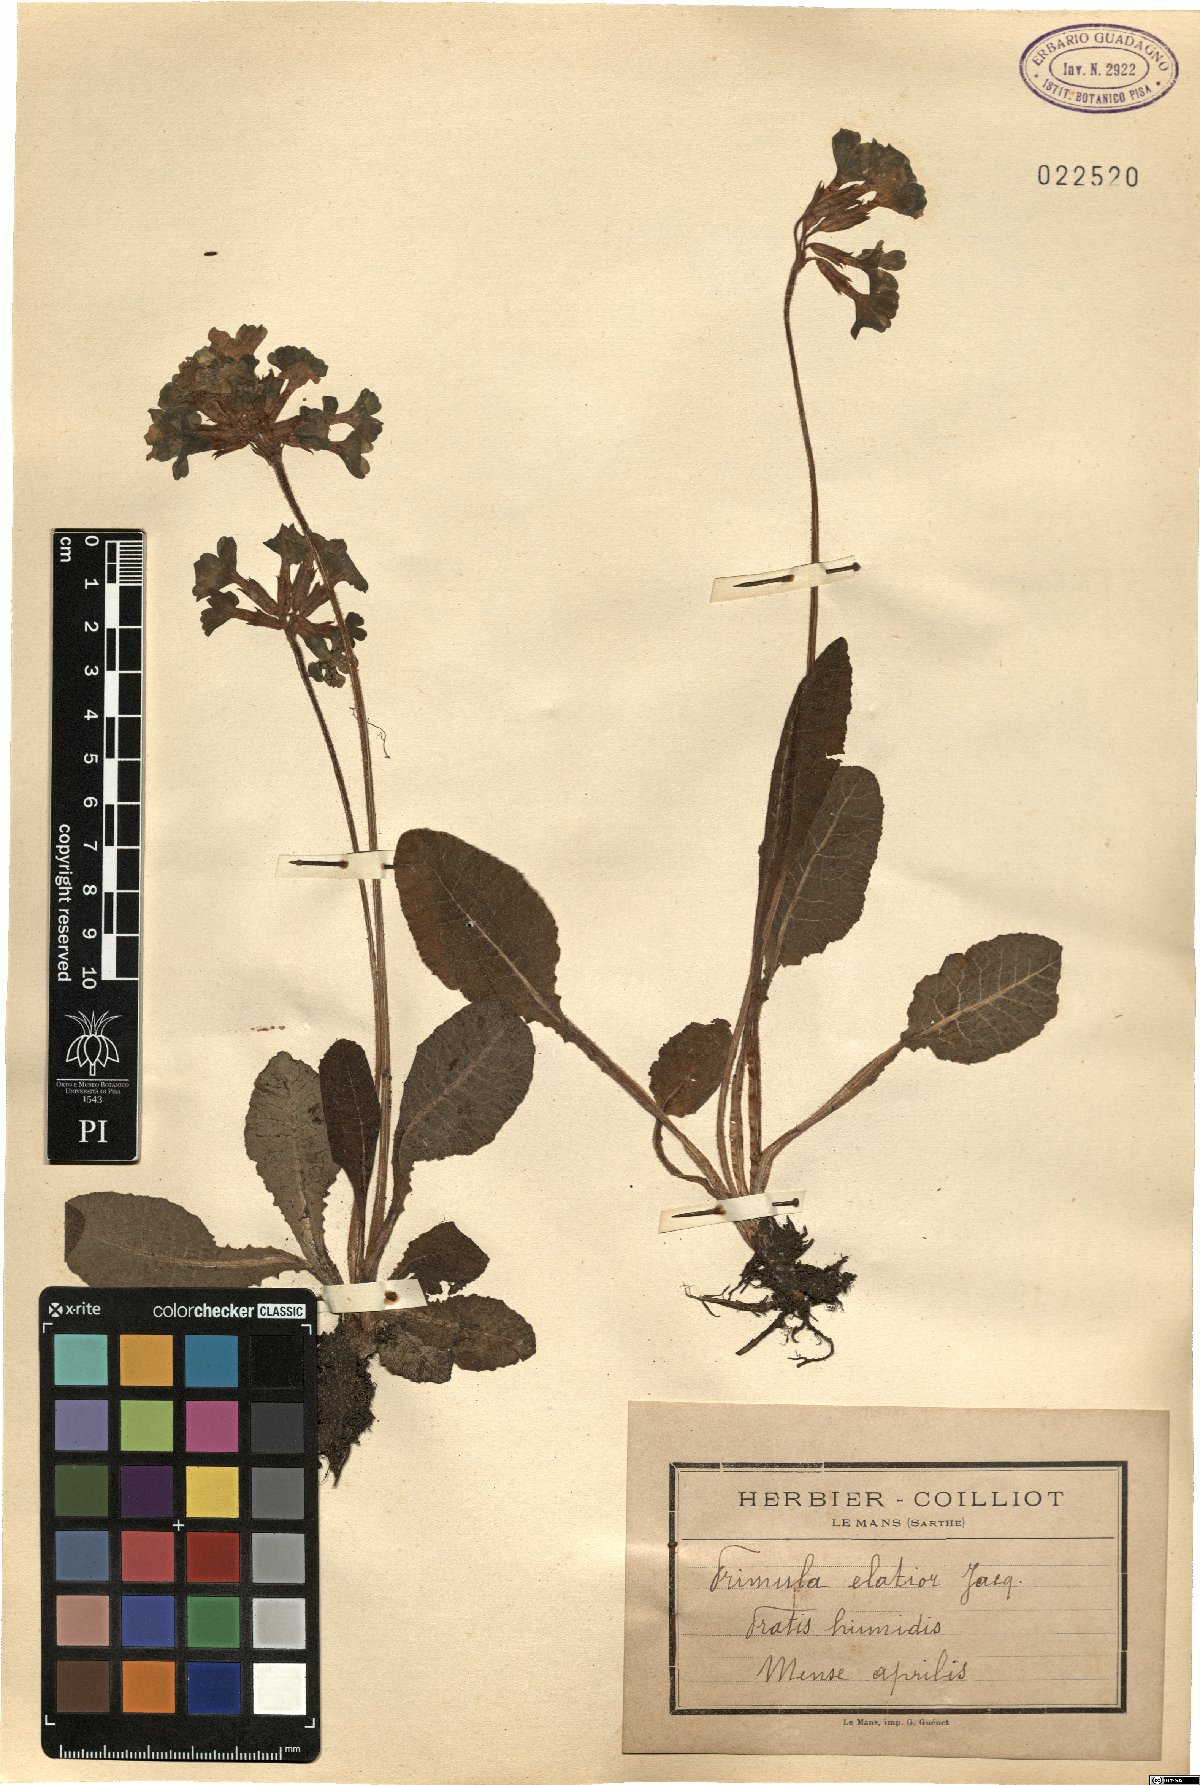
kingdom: Plantae
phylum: Tracheophyta
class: Magnoliopsida
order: Ericales
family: Primulaceae
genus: Primula
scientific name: Primula elatior
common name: Oxlip
